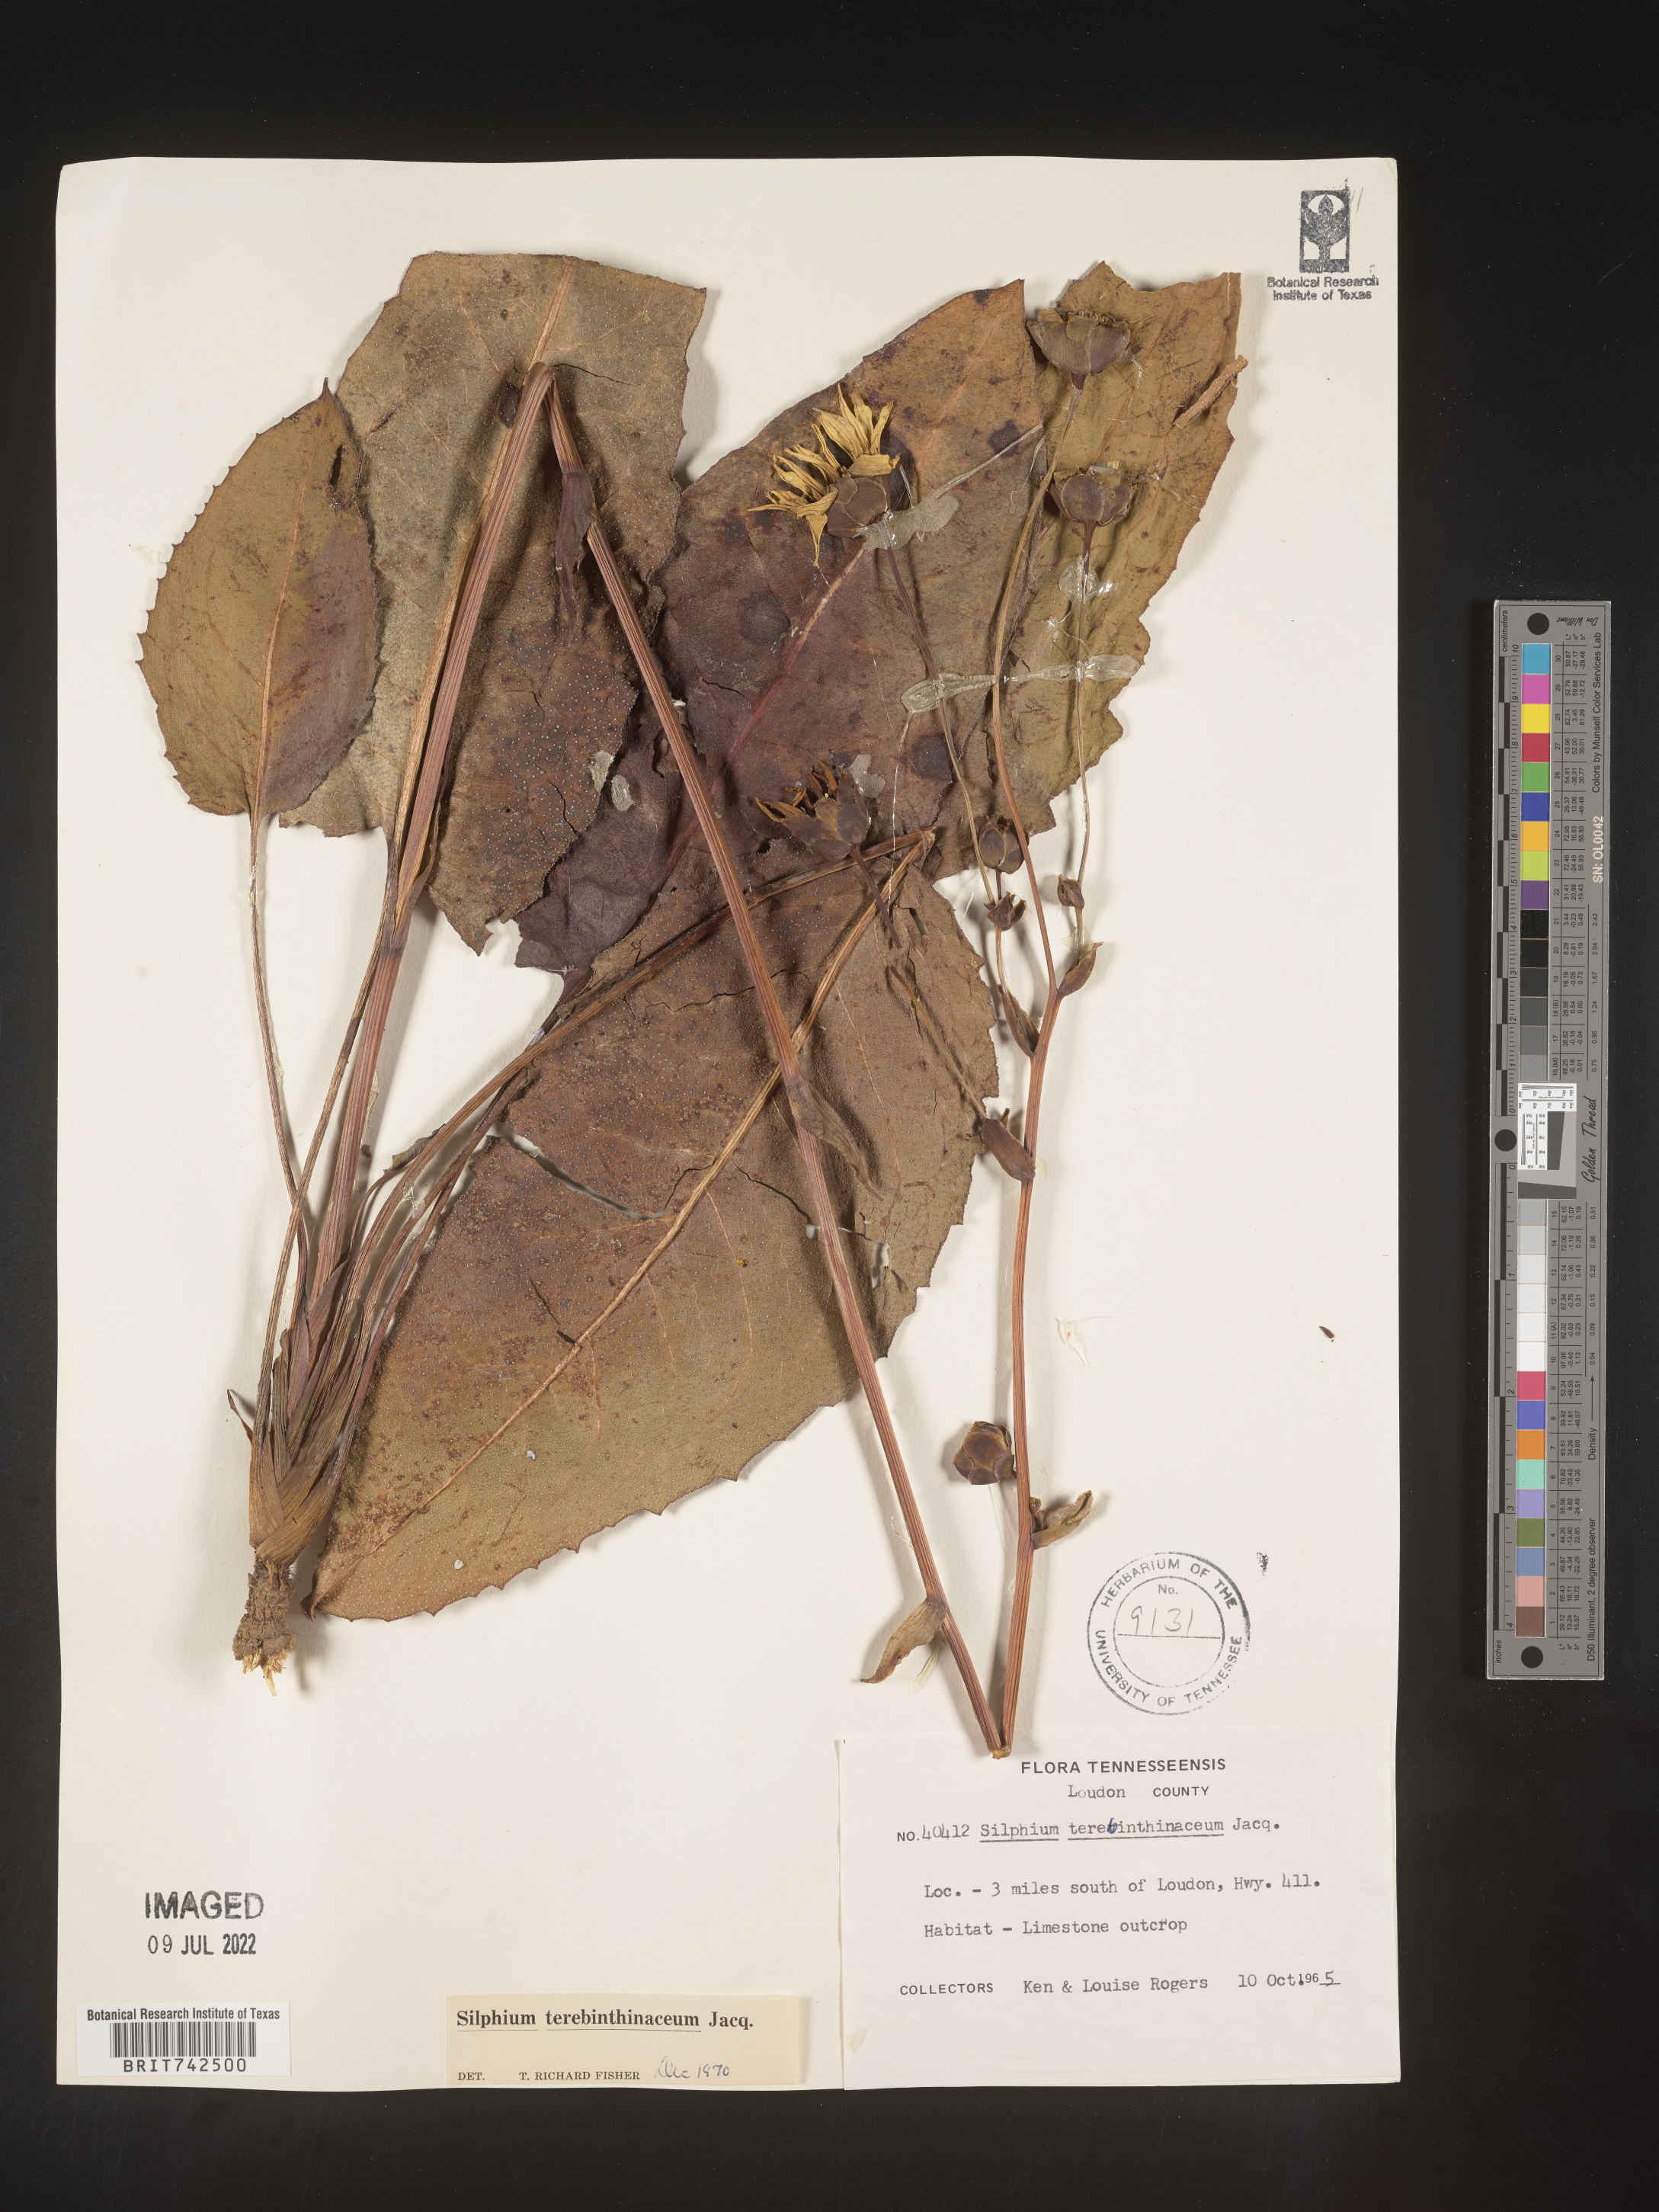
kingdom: Plantae
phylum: Tracheophyta
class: Magnoliopsida
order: Asterales
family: Asteraceae
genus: Silphium
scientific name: Silphium terebinthinaceum
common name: Basal-leaf rosinweed
